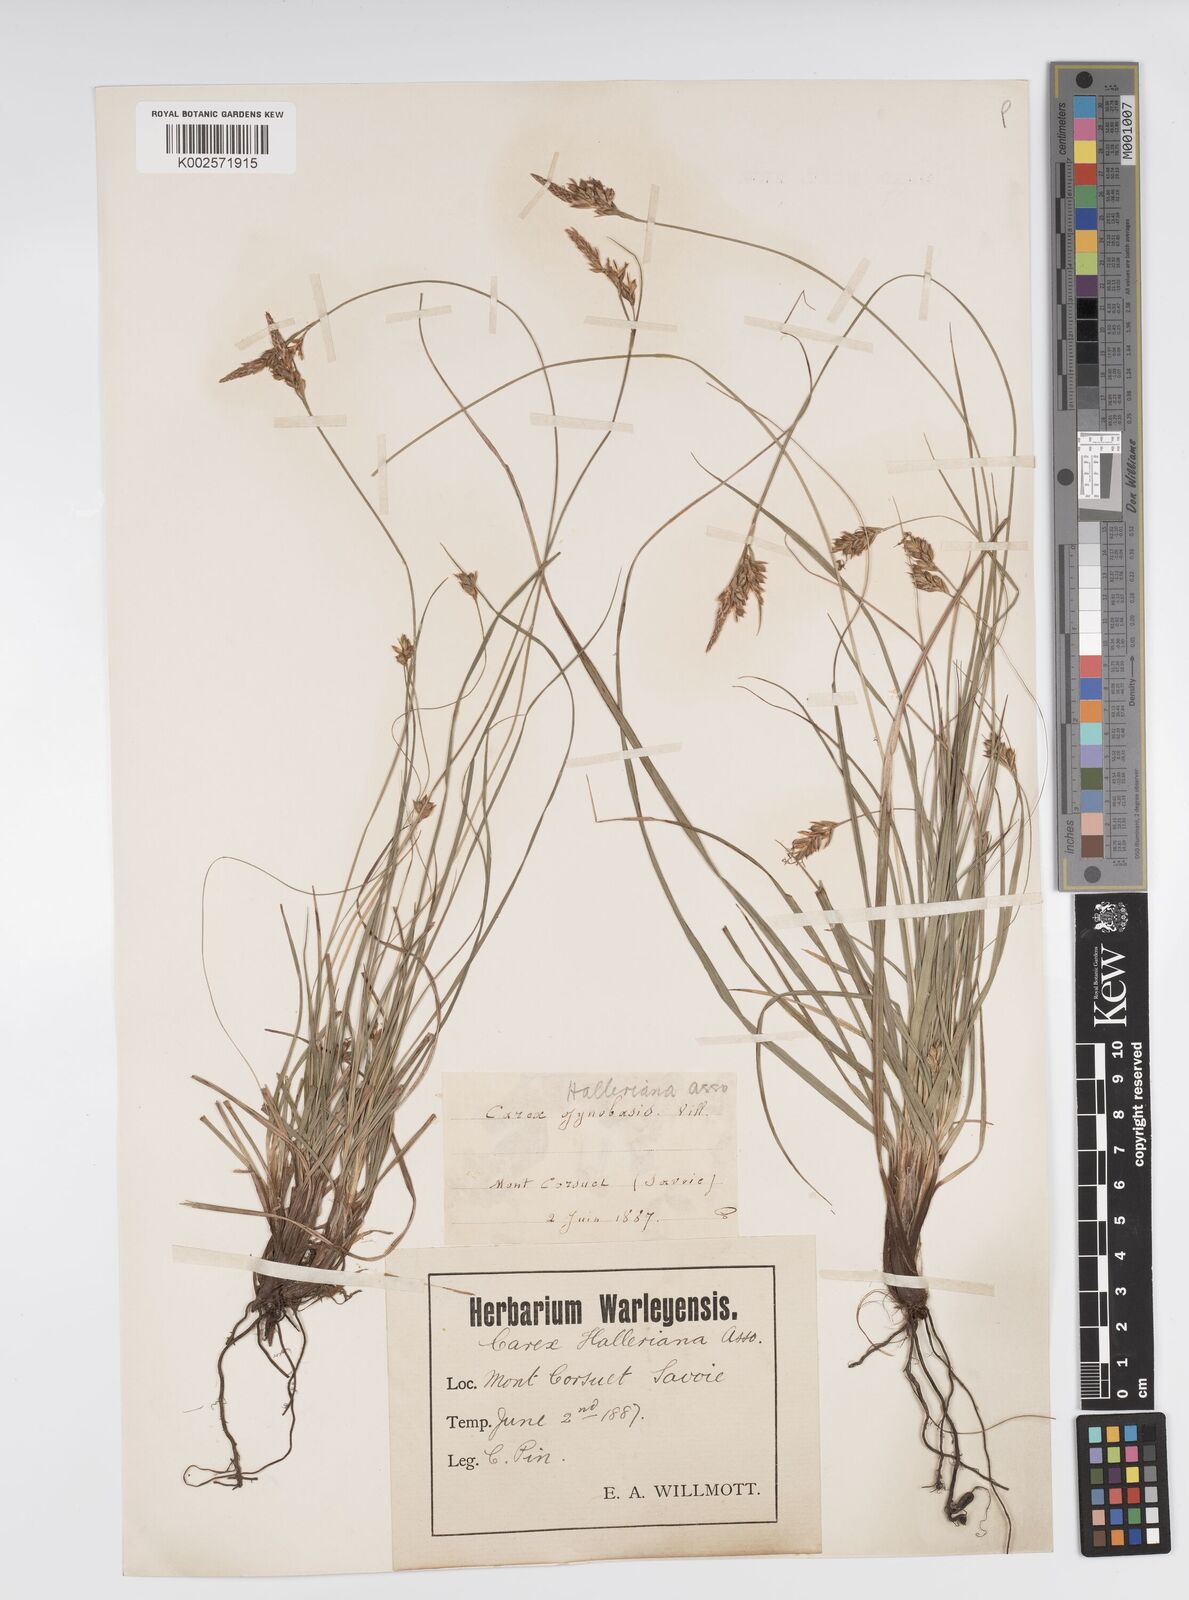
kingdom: Plantae
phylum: Tracheophyta
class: Liliopsida
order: Poales
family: Cyperaceae
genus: Carex
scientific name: Carex halleriana
